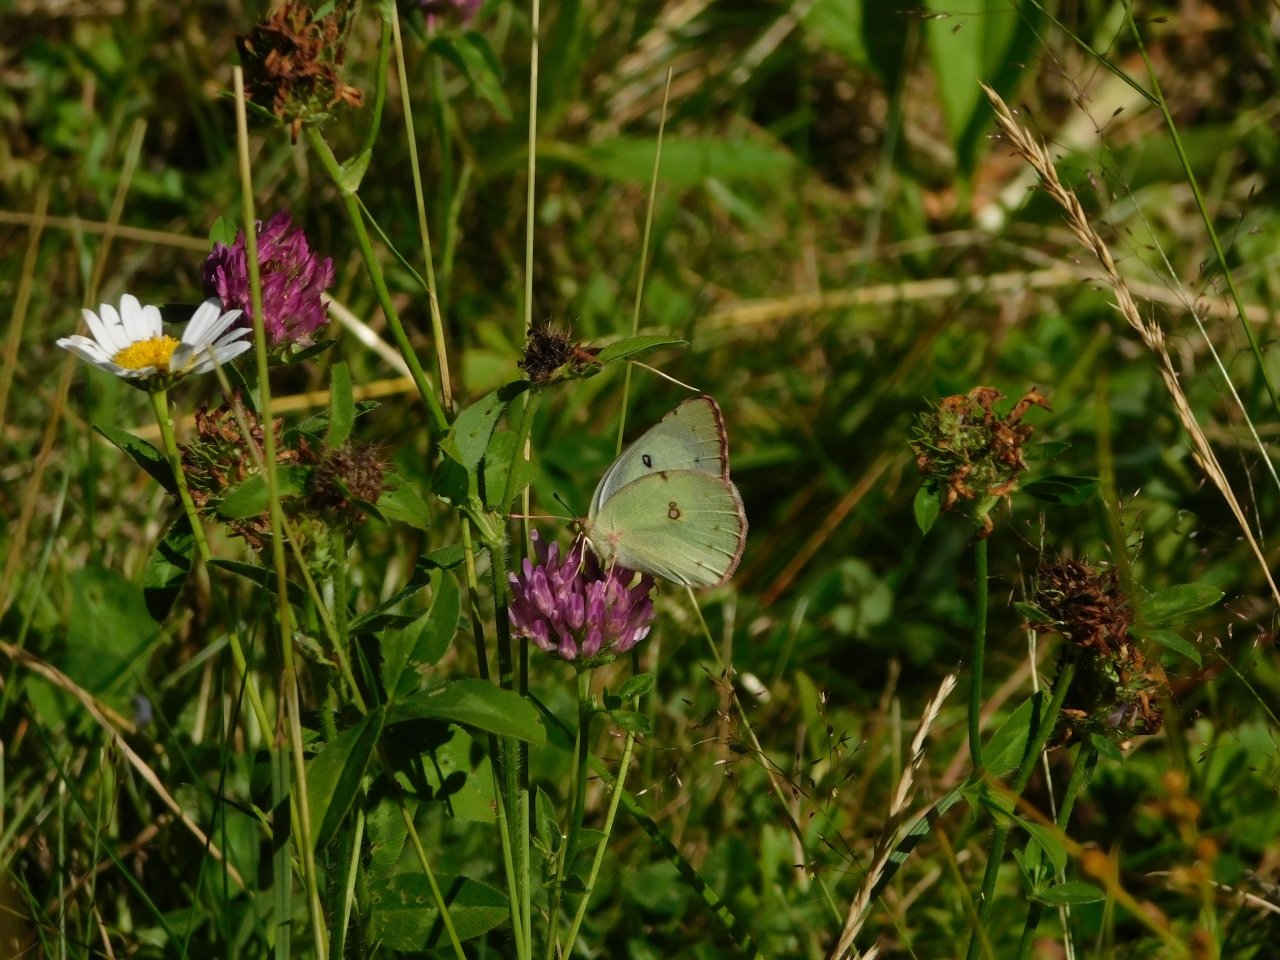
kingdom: Animalia
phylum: Arthropoda
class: Insecta
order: Lepidoptera
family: Pieridae
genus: Colias
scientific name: Colias philodice
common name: Clouded Sulphur
